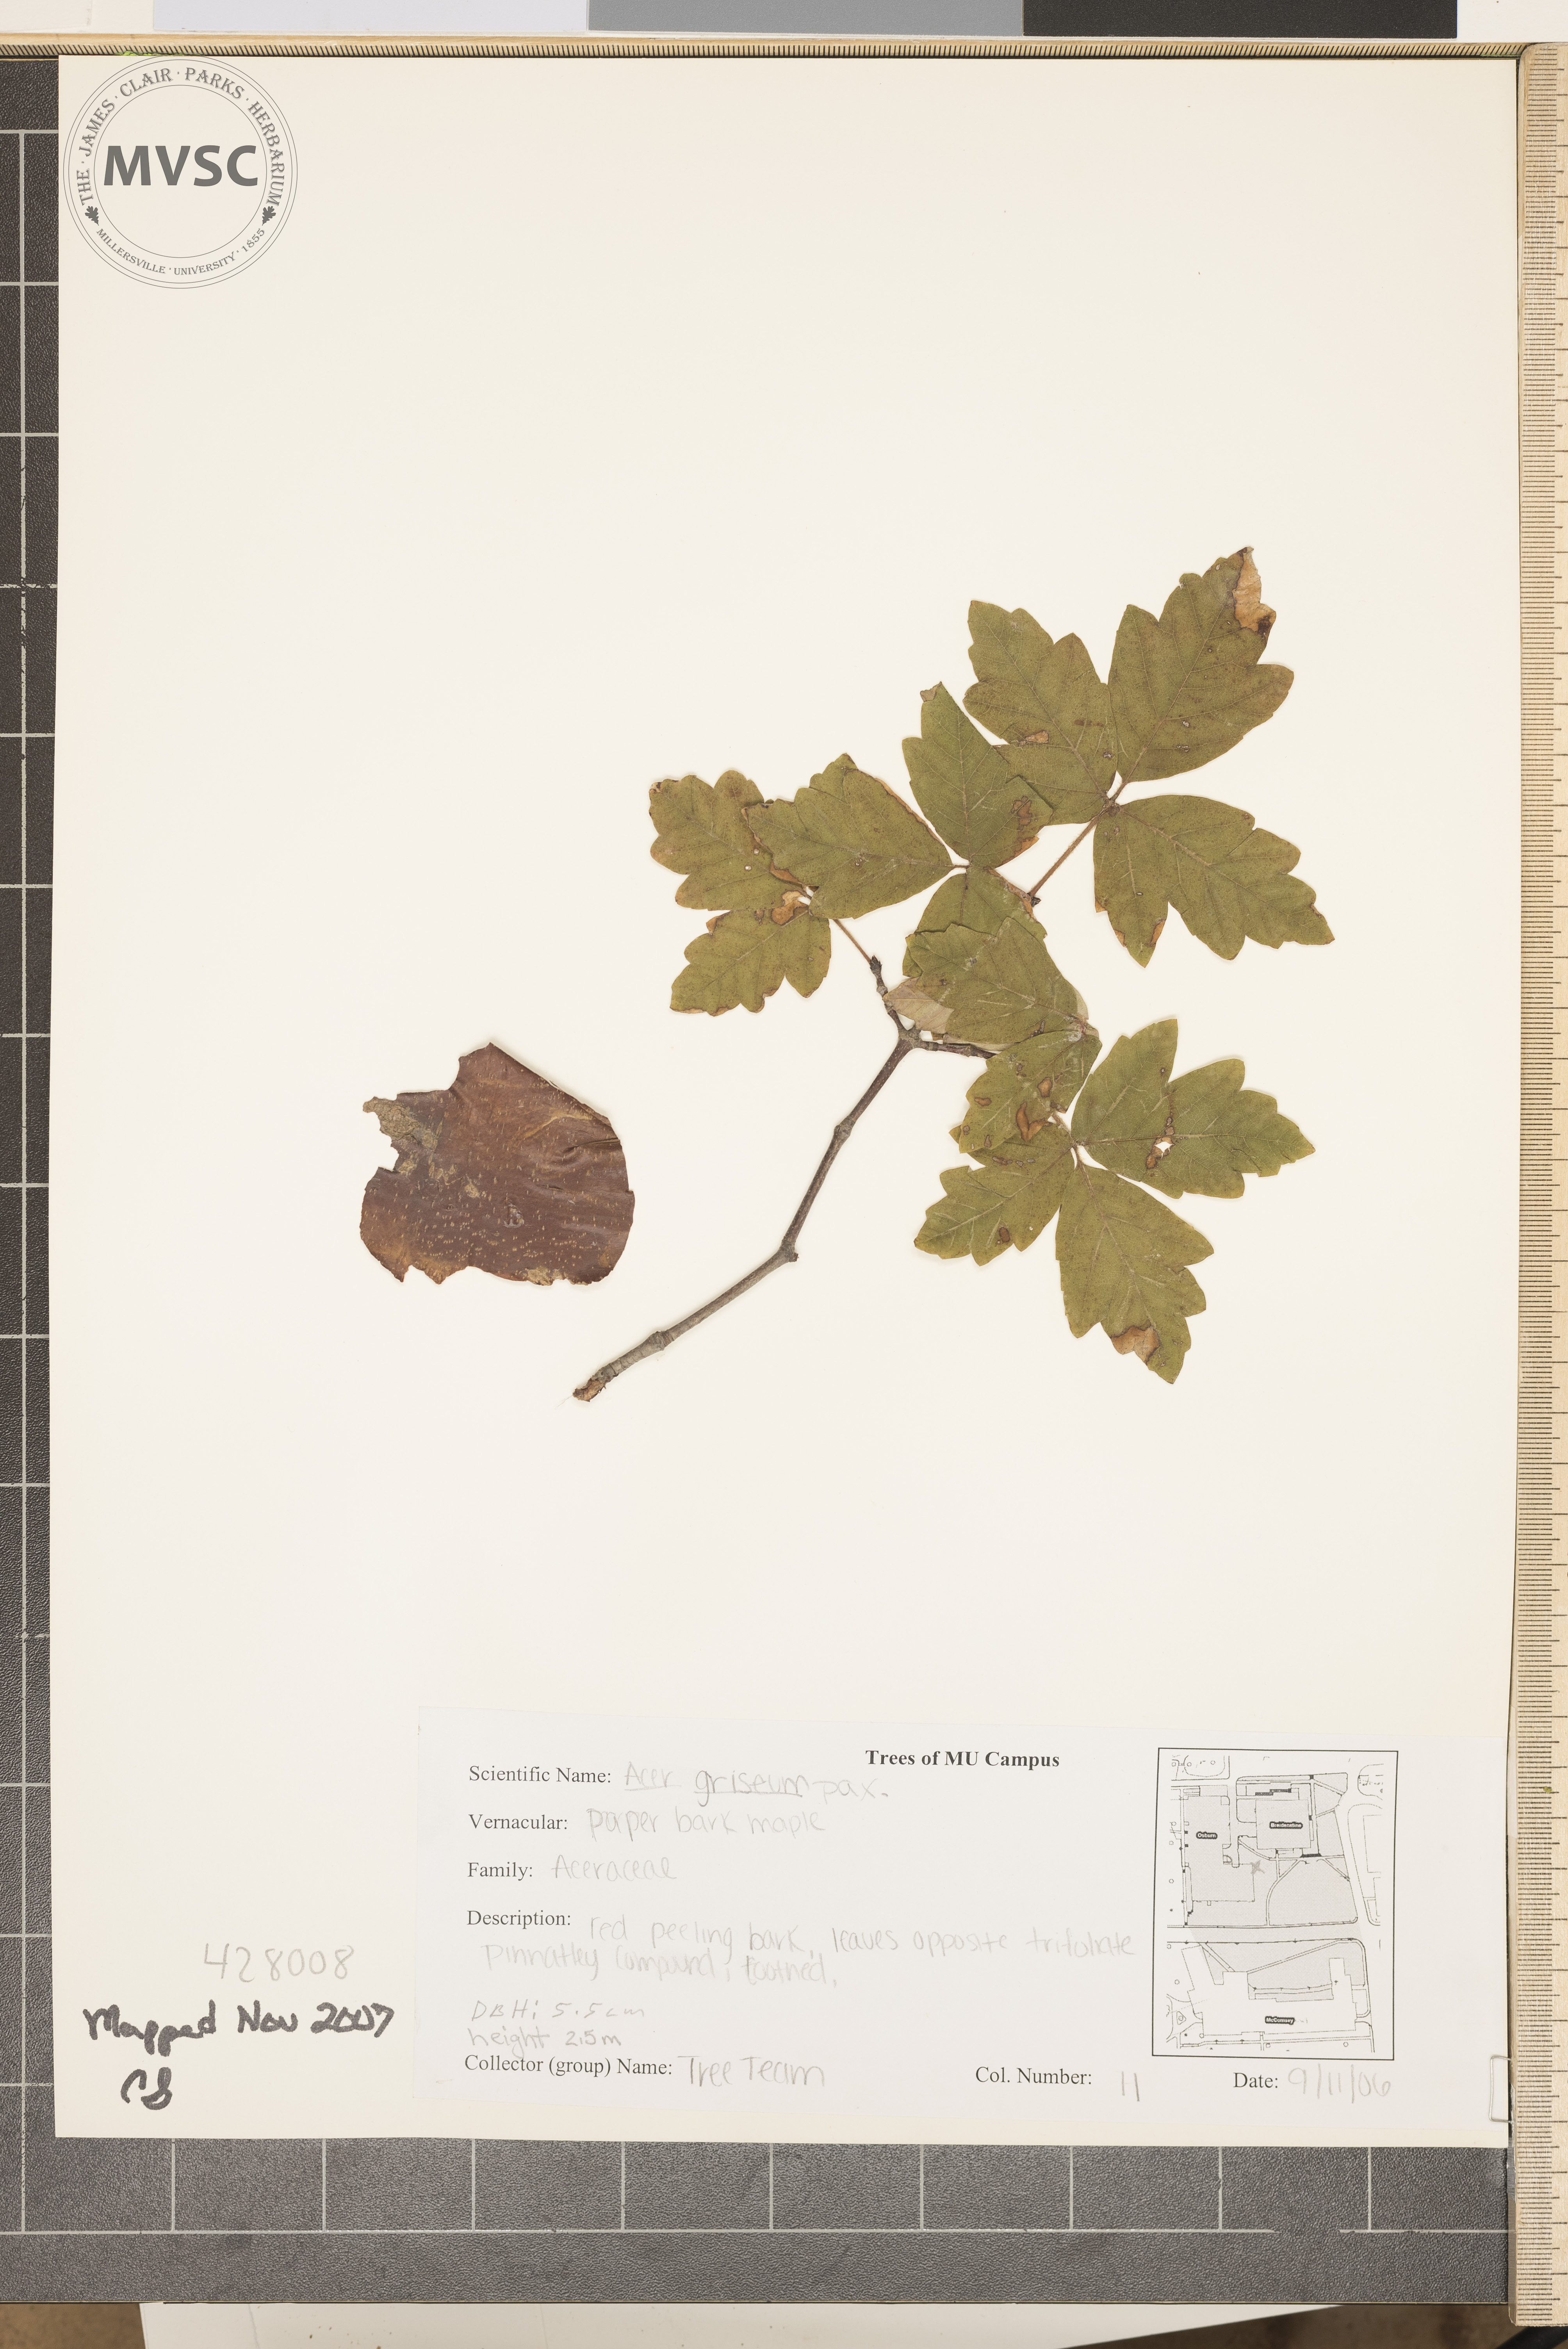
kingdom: Plantae
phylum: Tracheophyta
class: Magnoliopsida
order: Sapindales
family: Sapindaceae
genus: Acer
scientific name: Acer griseum
